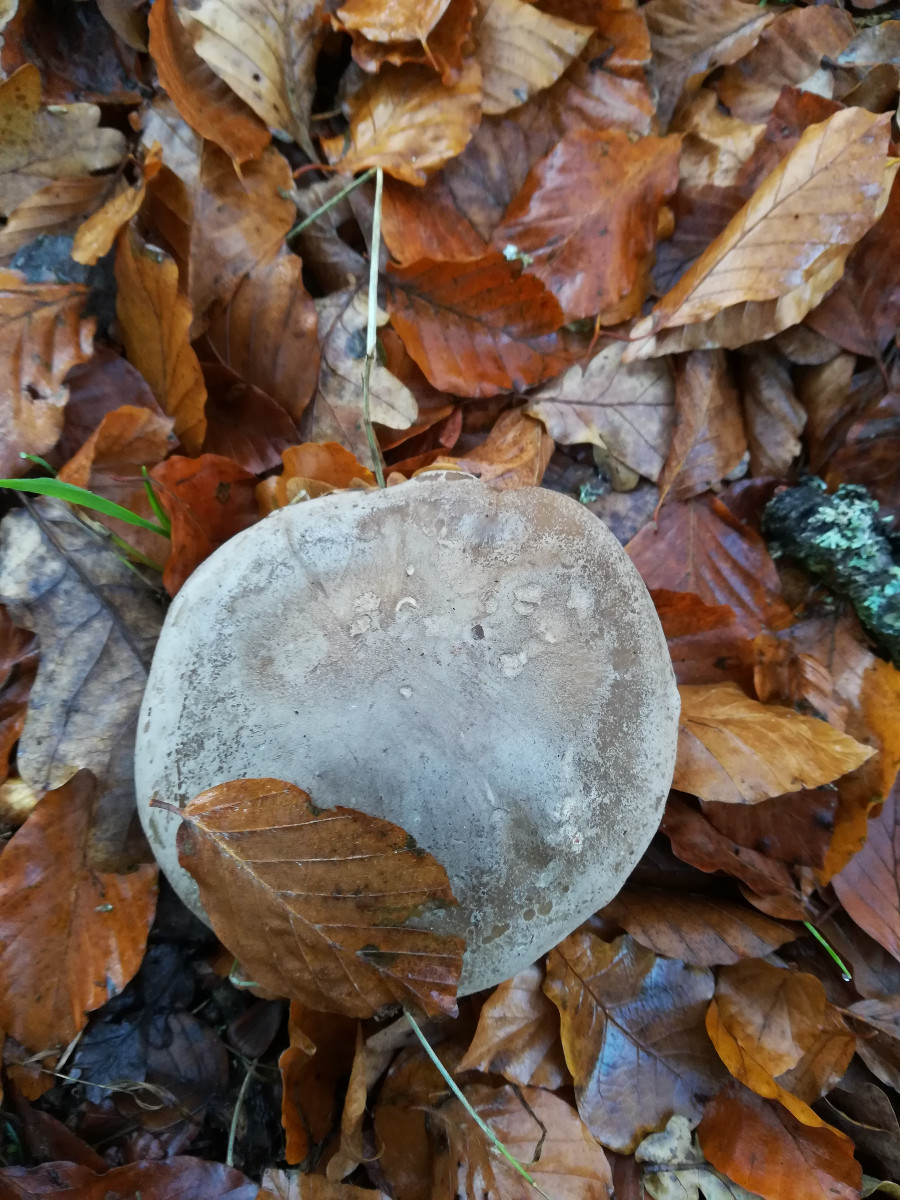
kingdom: Fungi
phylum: Basidiomycota
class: Agaricomycetes
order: Agaricales
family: Tricholomataceae
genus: Clitocybe
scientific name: Clitocybe nebularis
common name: tåge-tragthat
